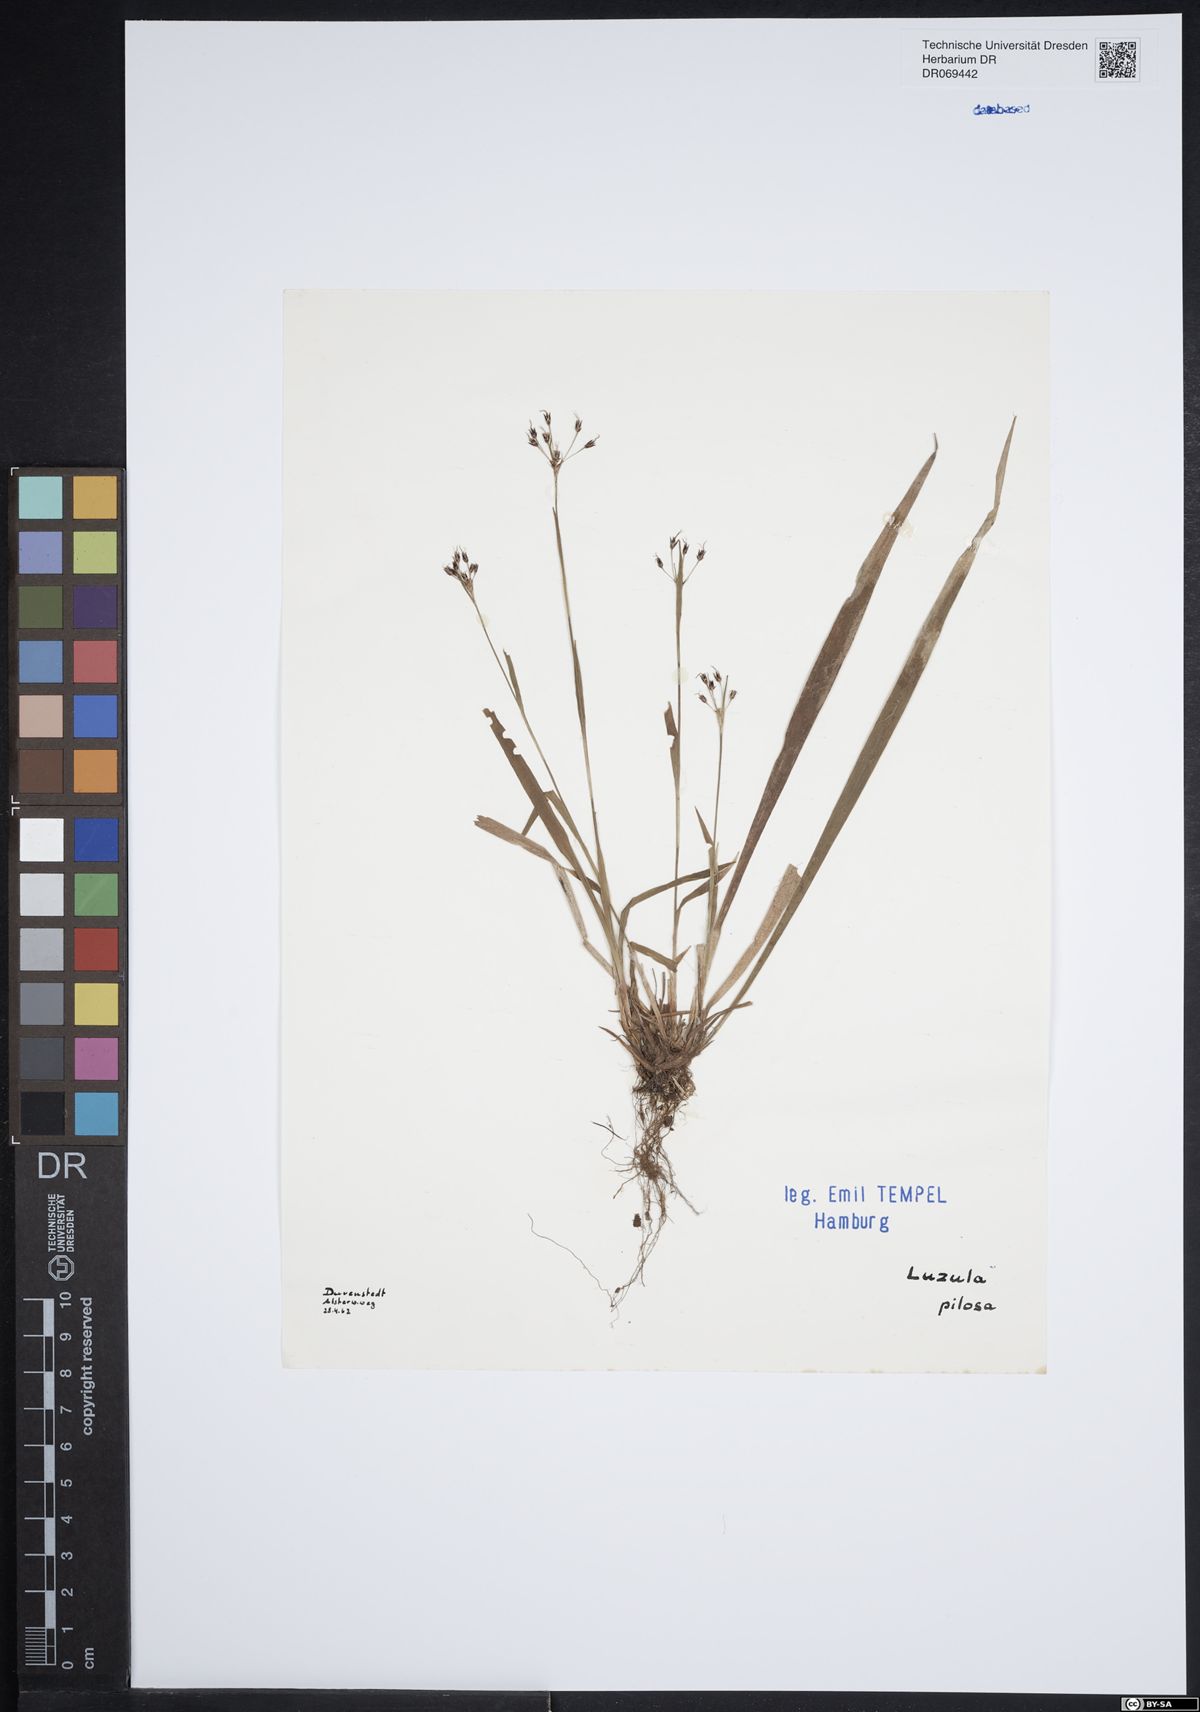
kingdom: Plantae
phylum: Tracheophyta
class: Liliopsida
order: Poales
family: Juncaceae
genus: Luzula
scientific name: Luzula pilosa
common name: Hairy wood-rush
